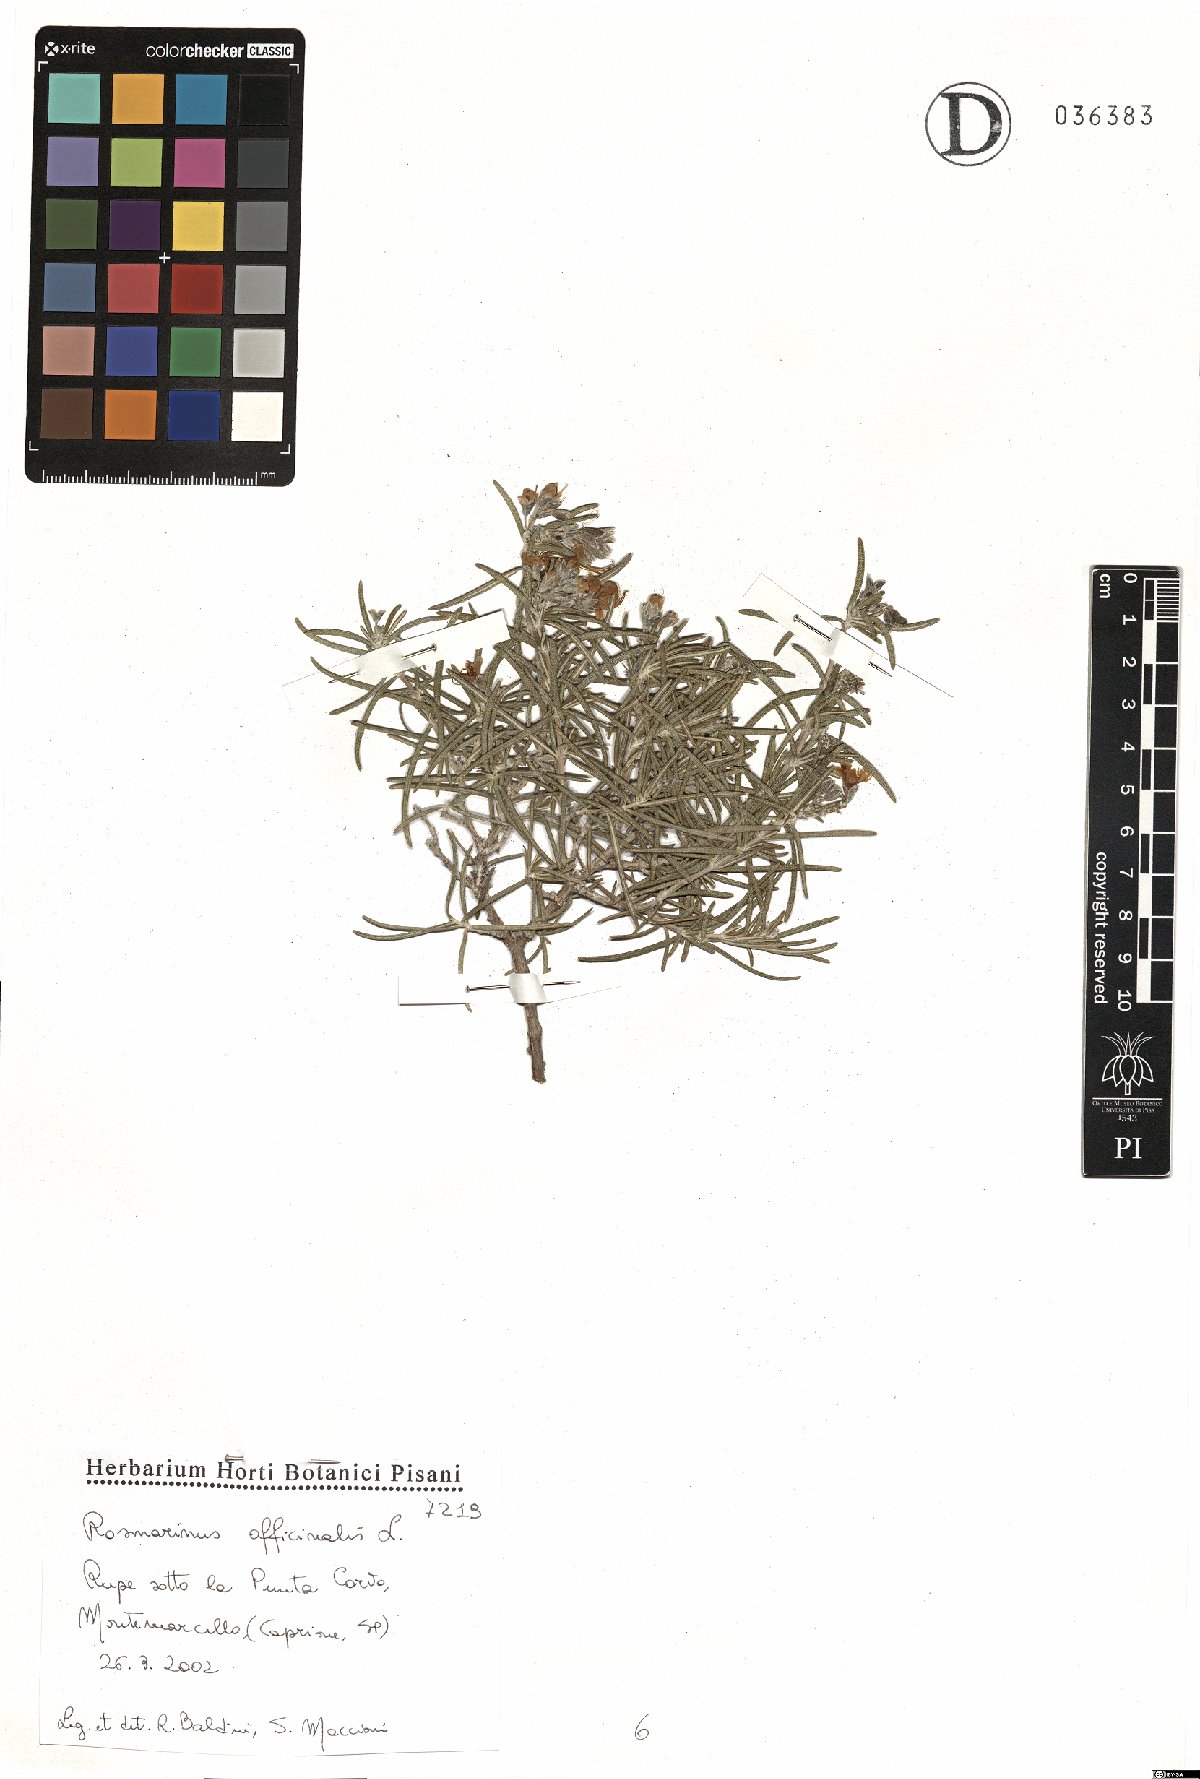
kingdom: Plantae
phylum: Tracheophyta
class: Magnoliopsida
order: Lamiales
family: Lamiaceae
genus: Salvia
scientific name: Salvia rosmarinus
